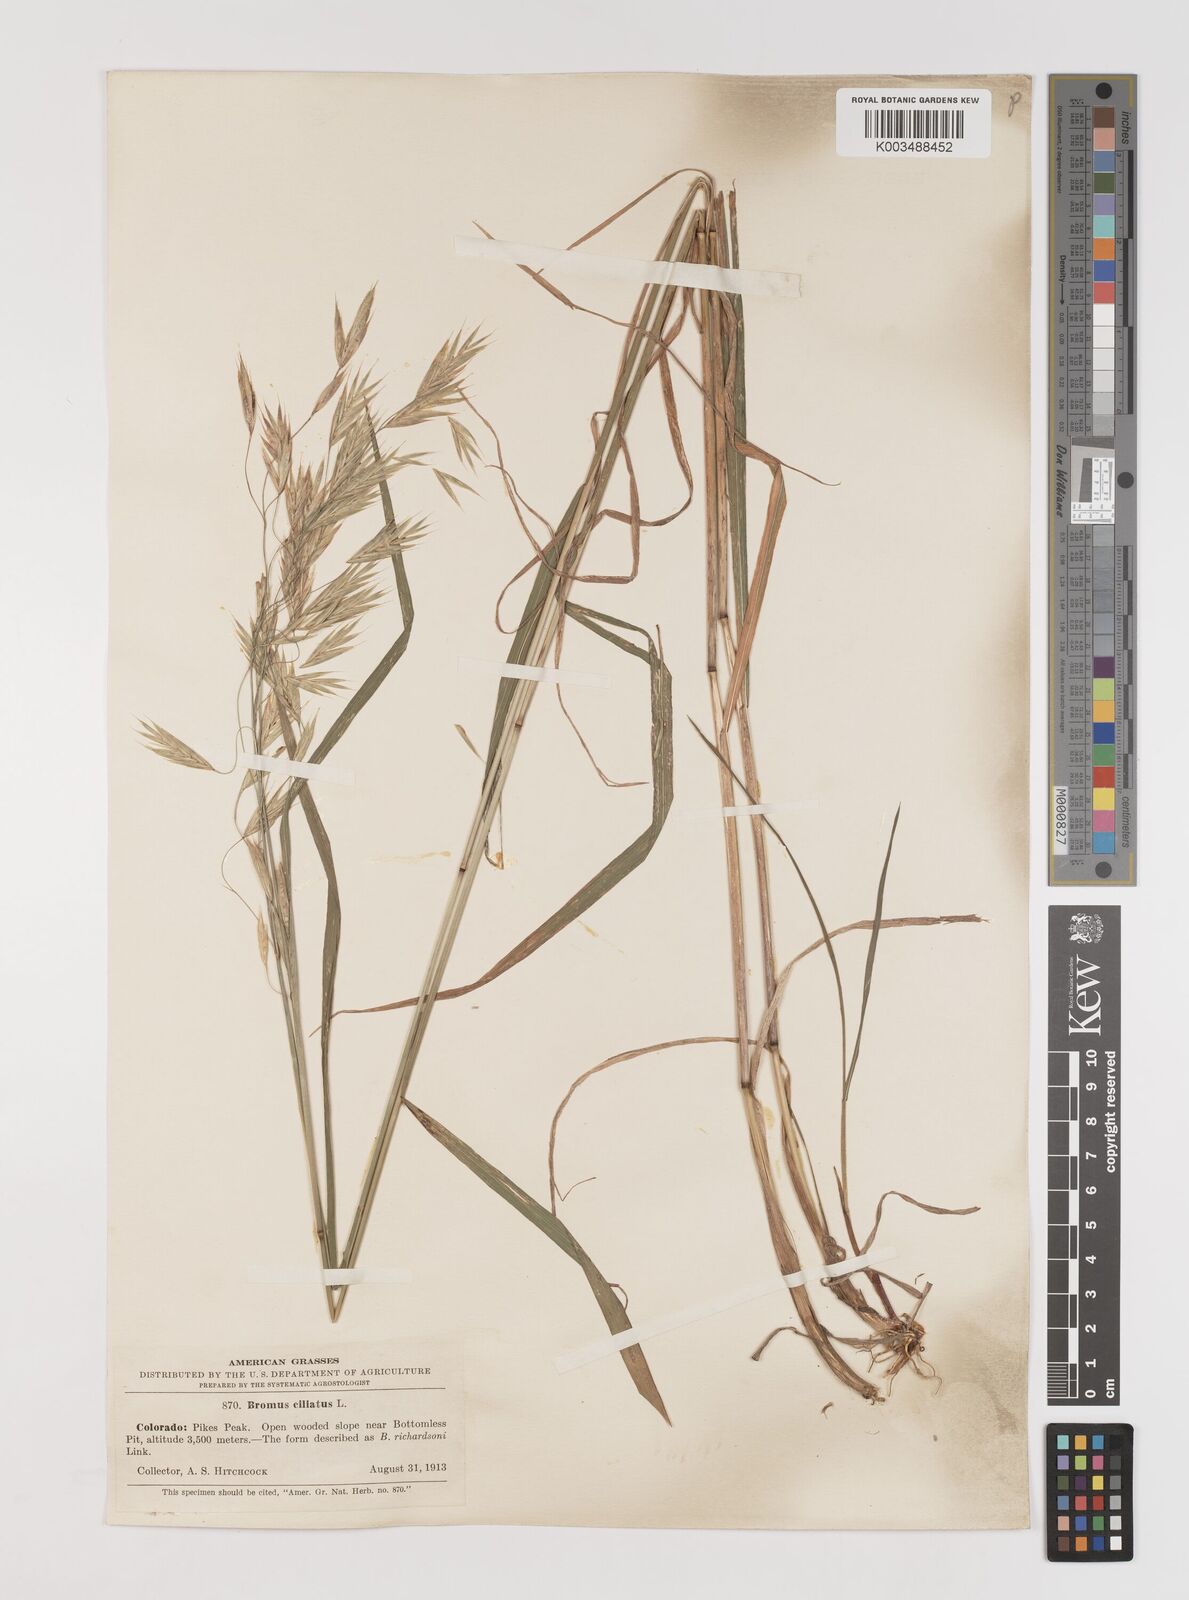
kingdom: Plantae
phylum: Tracheophyta
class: Liliopsida
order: Poales
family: Poaceae
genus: Bromus
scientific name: Bromus ciliatus
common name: Fringe brome
